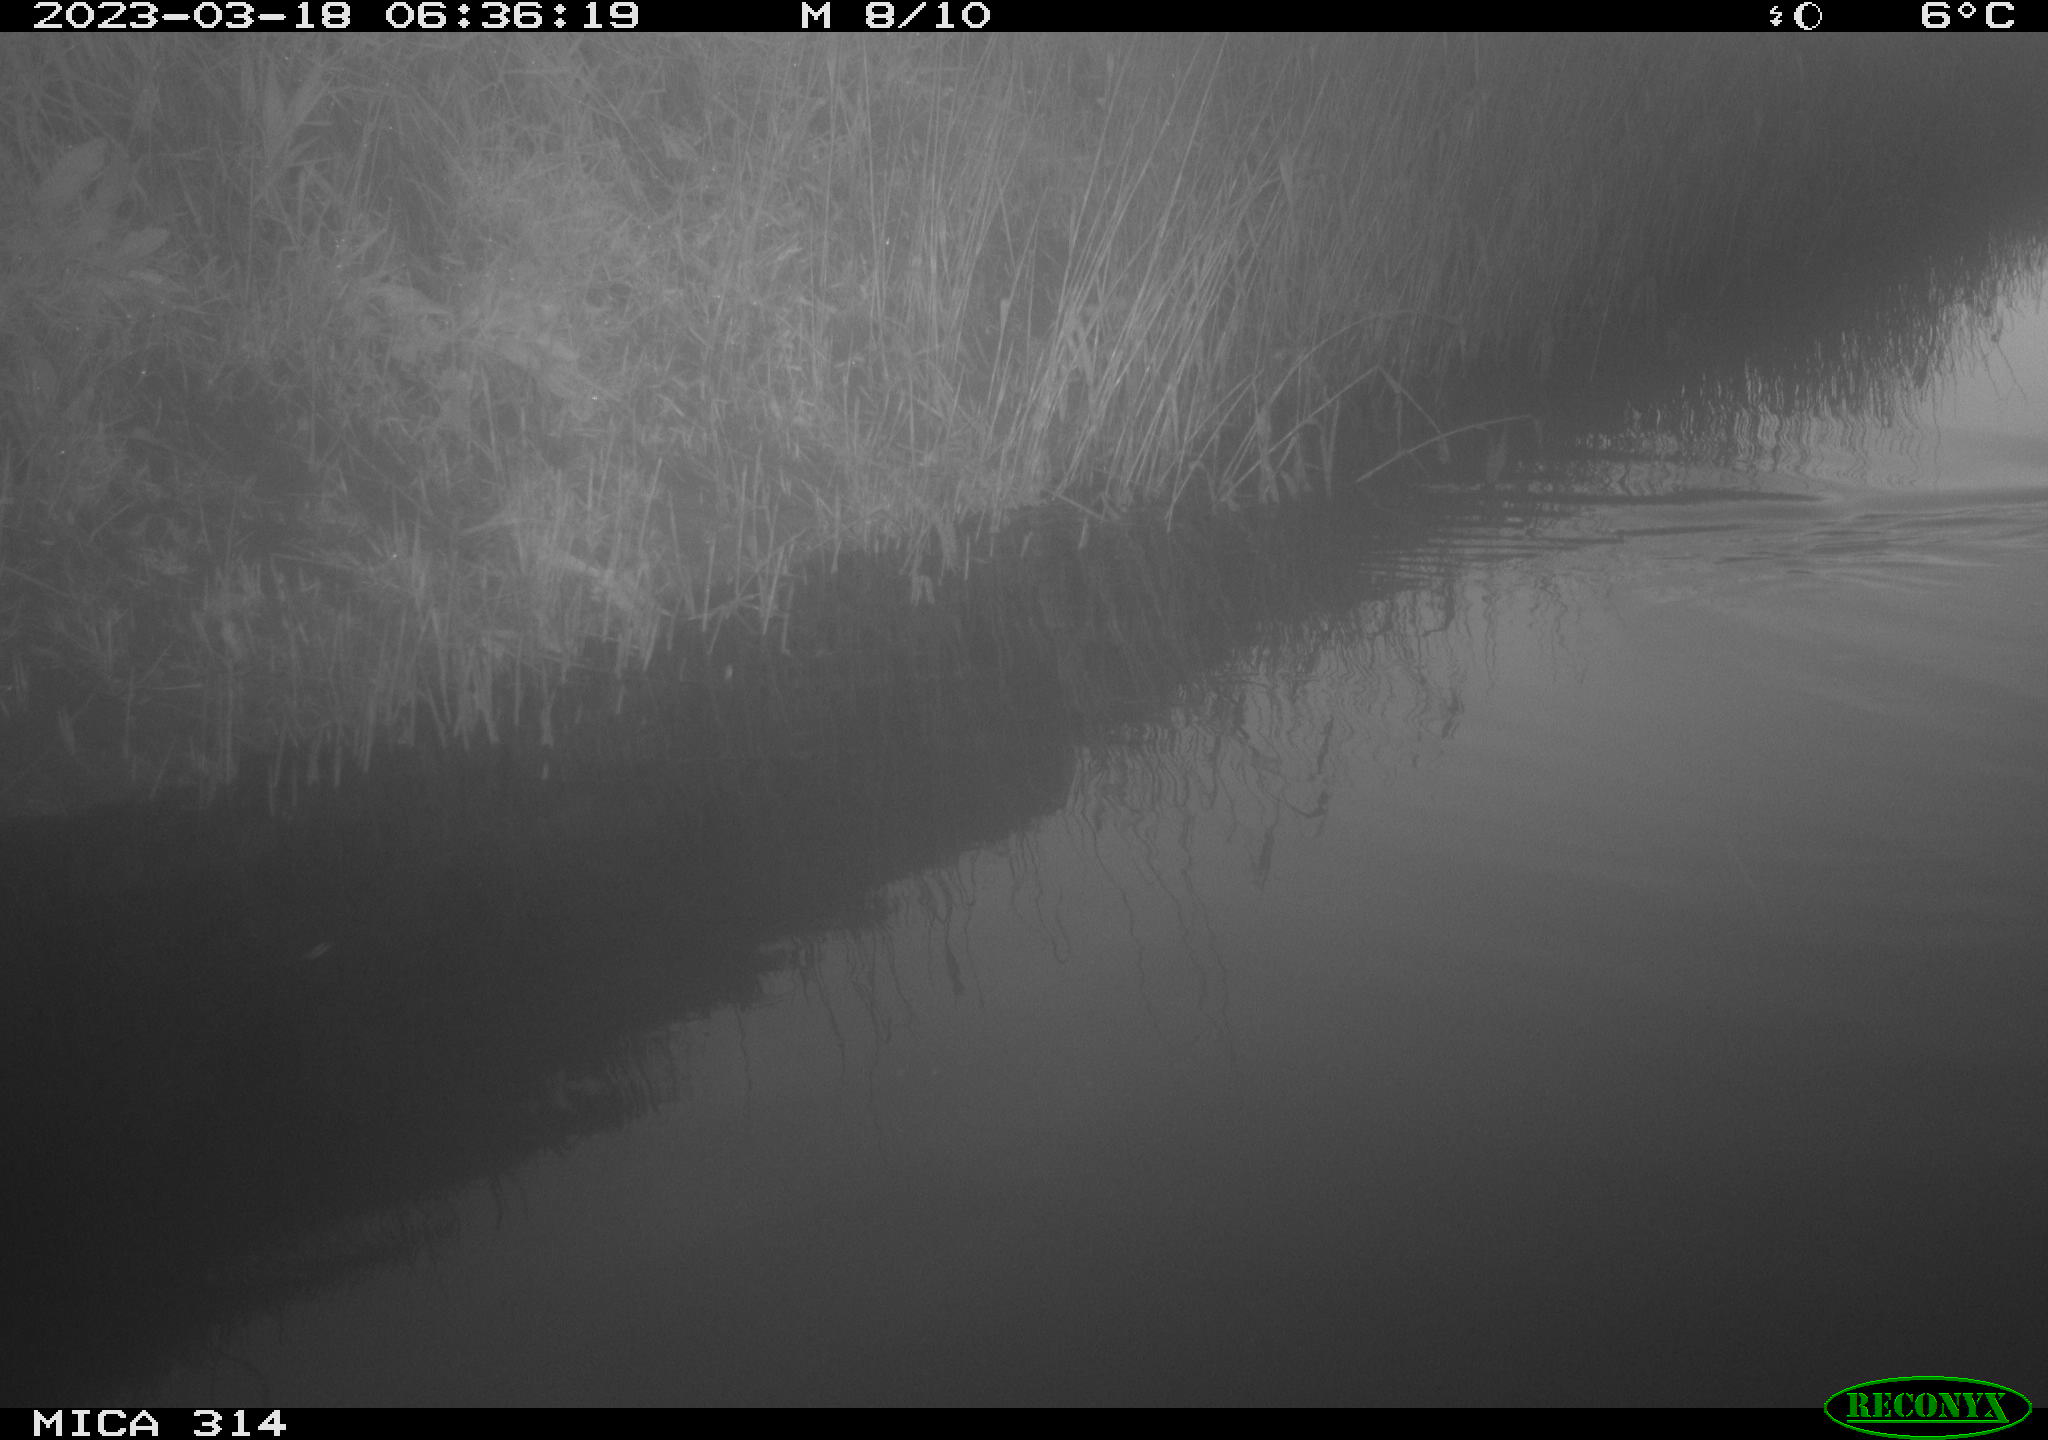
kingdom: Animalia
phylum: Chordata
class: Aves
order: Gruiformes
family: Rallidae
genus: Fulica
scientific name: Fulica atra
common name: Eurasian coot
